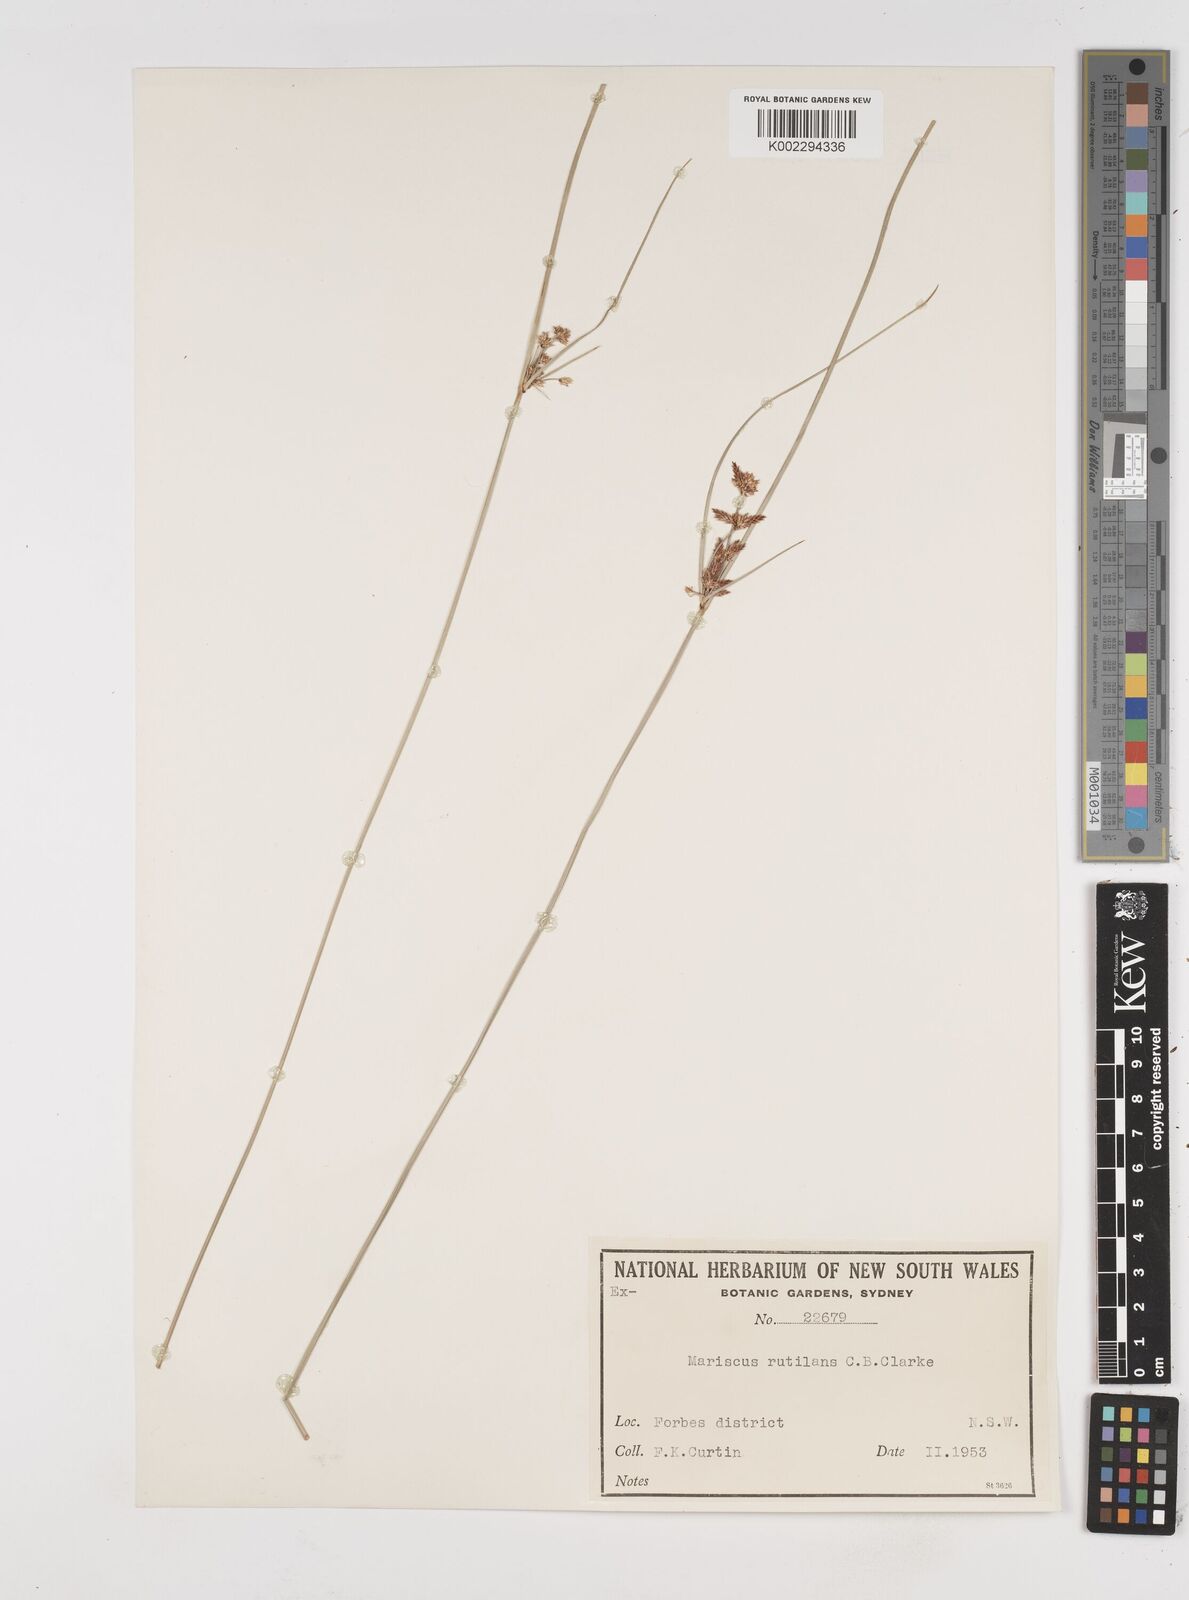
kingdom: Plantae
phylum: Tracheophyta
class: Liliopsida
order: Poales
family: Cyperaceae
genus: Cyperus
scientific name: Cyperus lhotskyanus
